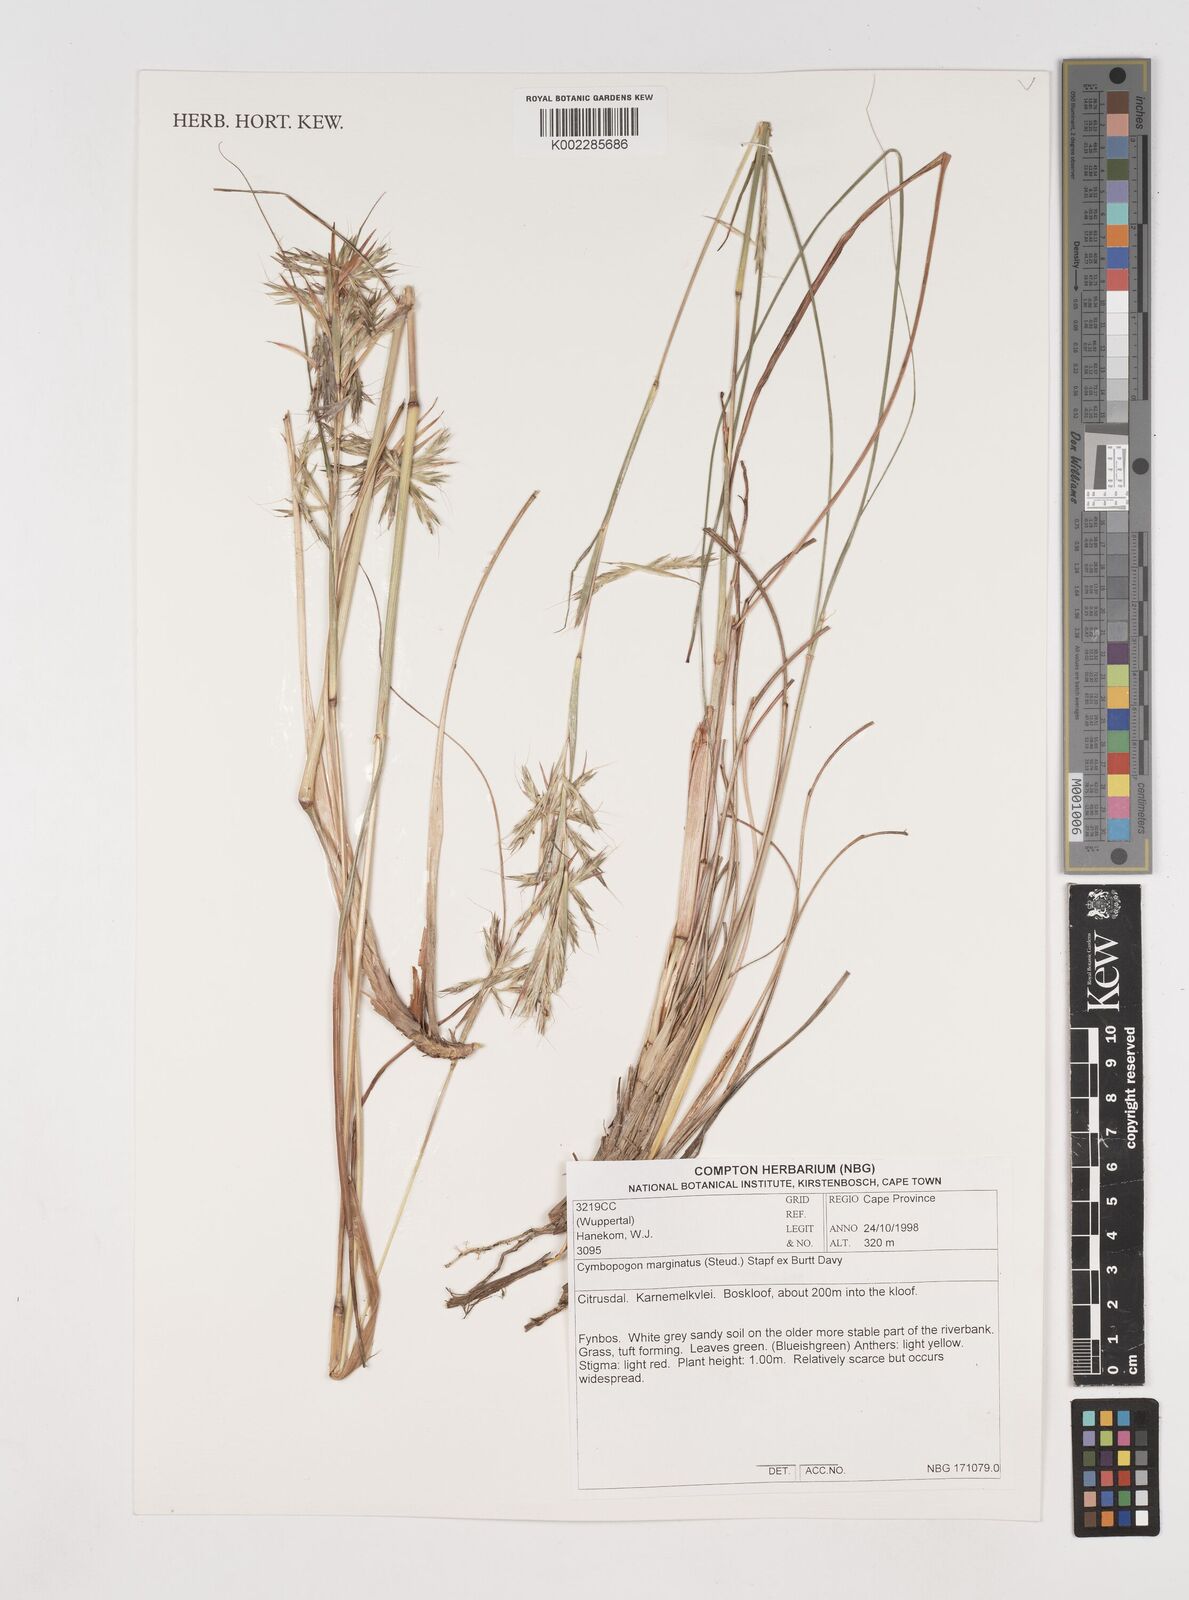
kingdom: Plantae
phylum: Tracheophyta
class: Liliopsida
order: Poales
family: Poaceae
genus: Cymbopogon
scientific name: Cymbopogon marginatus
